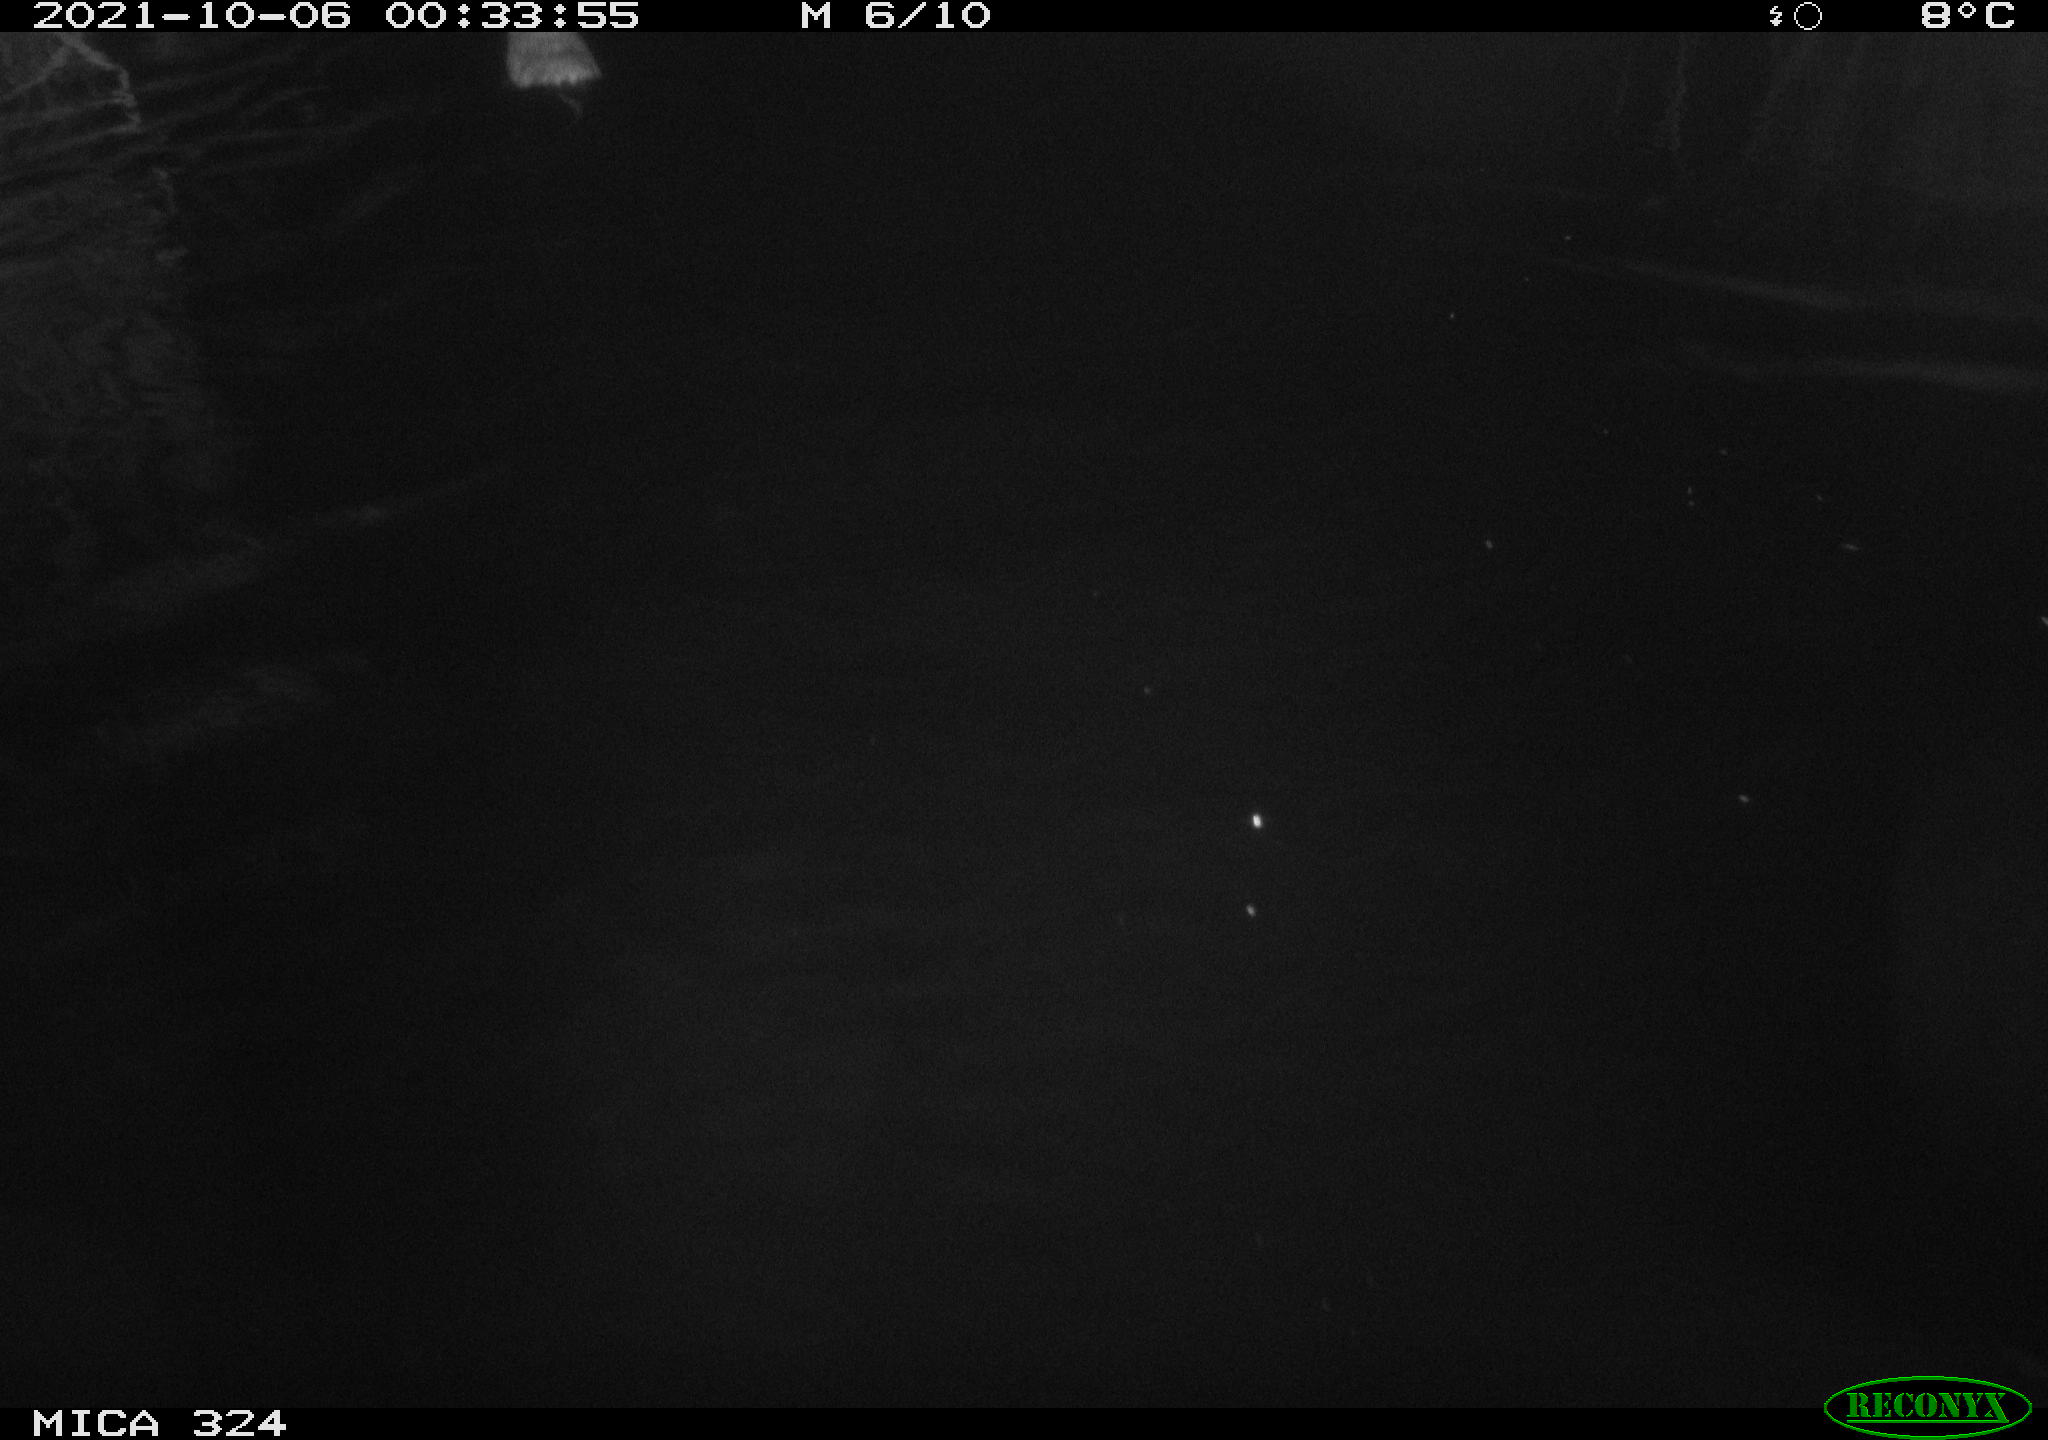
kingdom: Animalia
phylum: Chordata
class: Mammalia
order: Rodentia
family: Cricetidae
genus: Ondatra
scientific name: Ondatra zibethicus
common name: Muskrat
